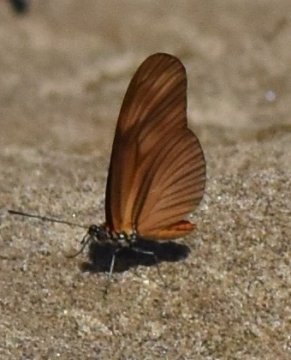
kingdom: Animalia
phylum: Arthropoda
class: Insecta
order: Lepidoptera
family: Nymphalidae
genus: Heliconius
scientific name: Heliconius aliphera
